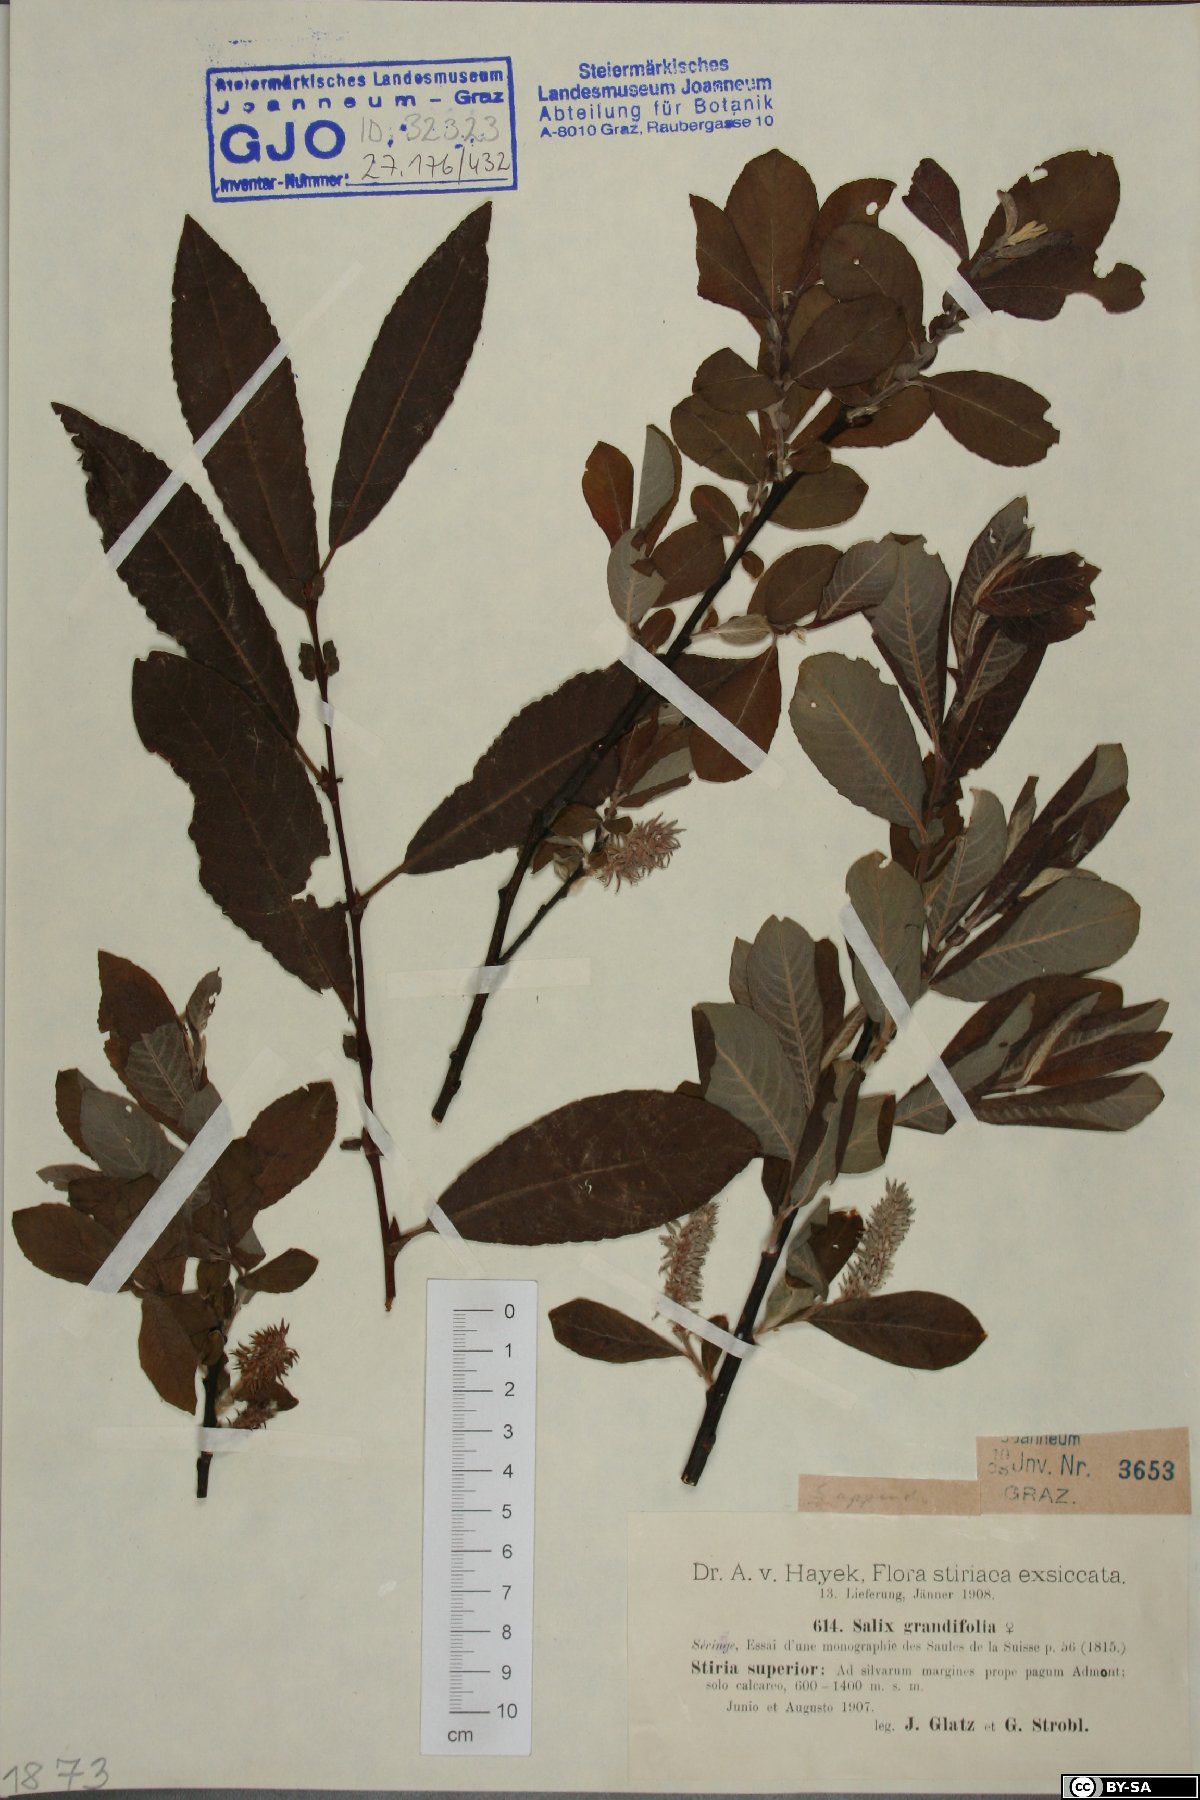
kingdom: Plantae
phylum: Tracheophyta
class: Magnoliopsida
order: Malpighiales
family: Salicaceae
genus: Salix
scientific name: Salix appendiculata
